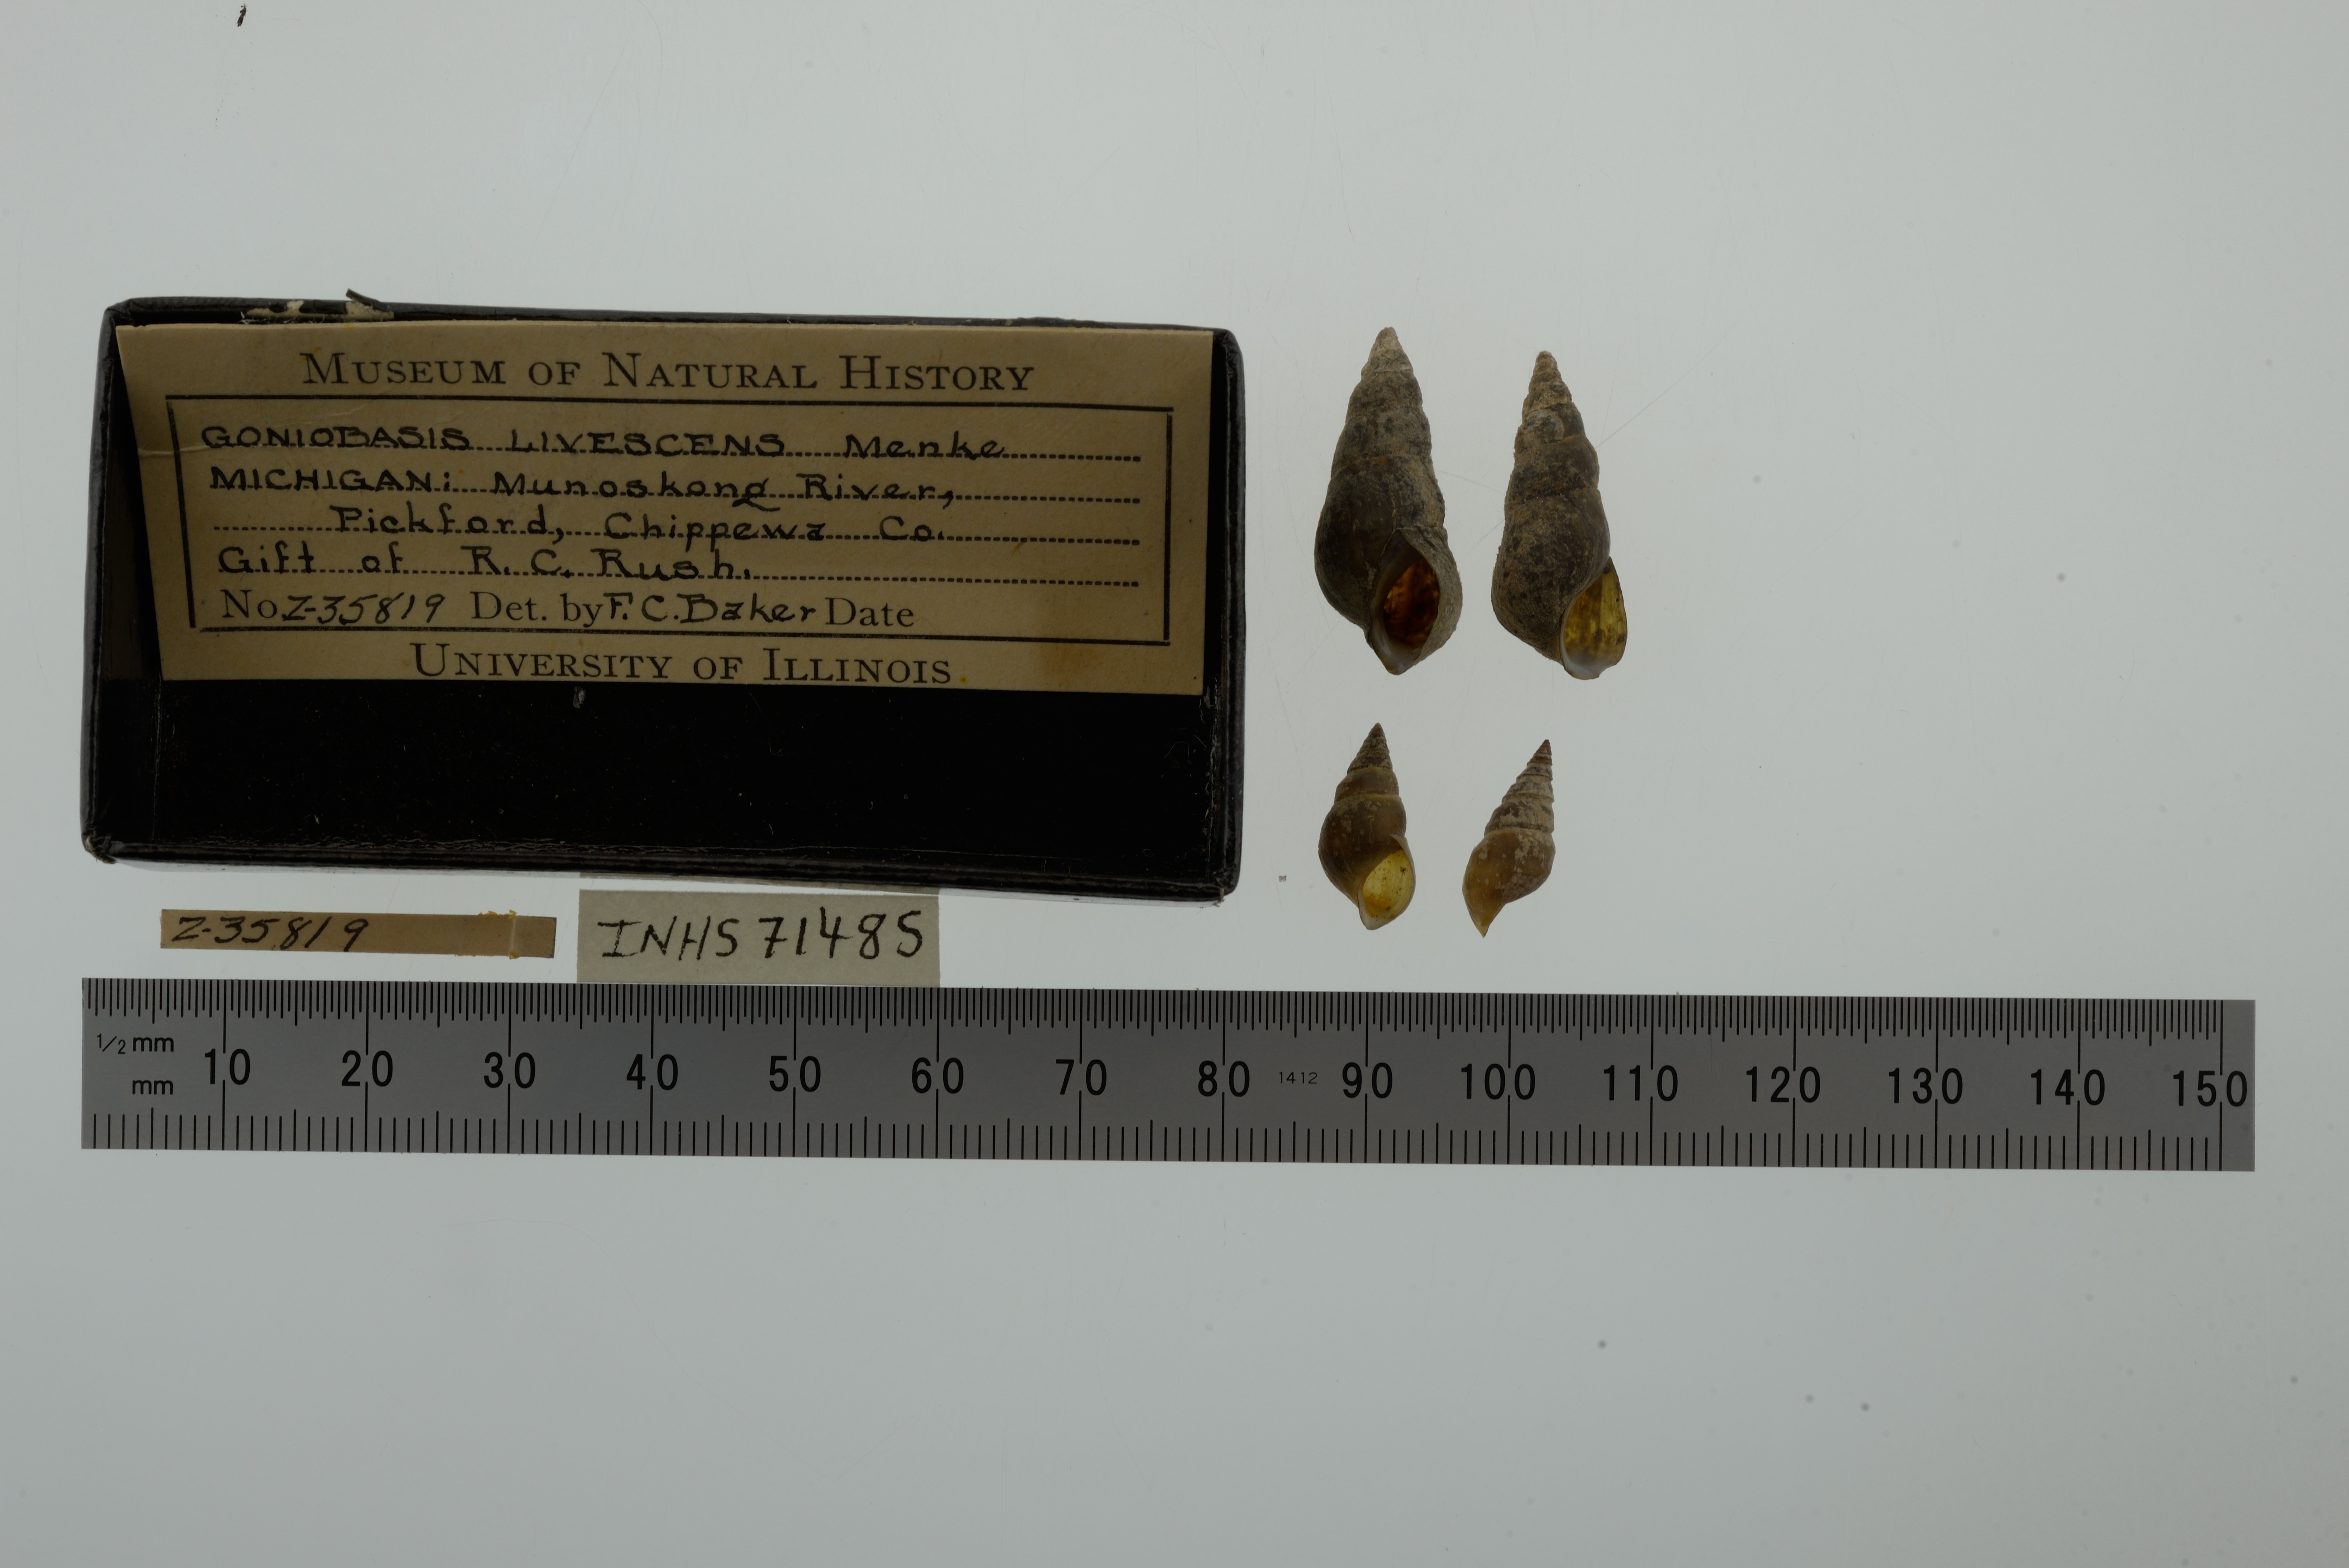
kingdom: Animalia
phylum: Mollusca
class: Gastropoda
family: Pleuroceridae
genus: Elimia
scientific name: Elimia livescens
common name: Liver elimia
